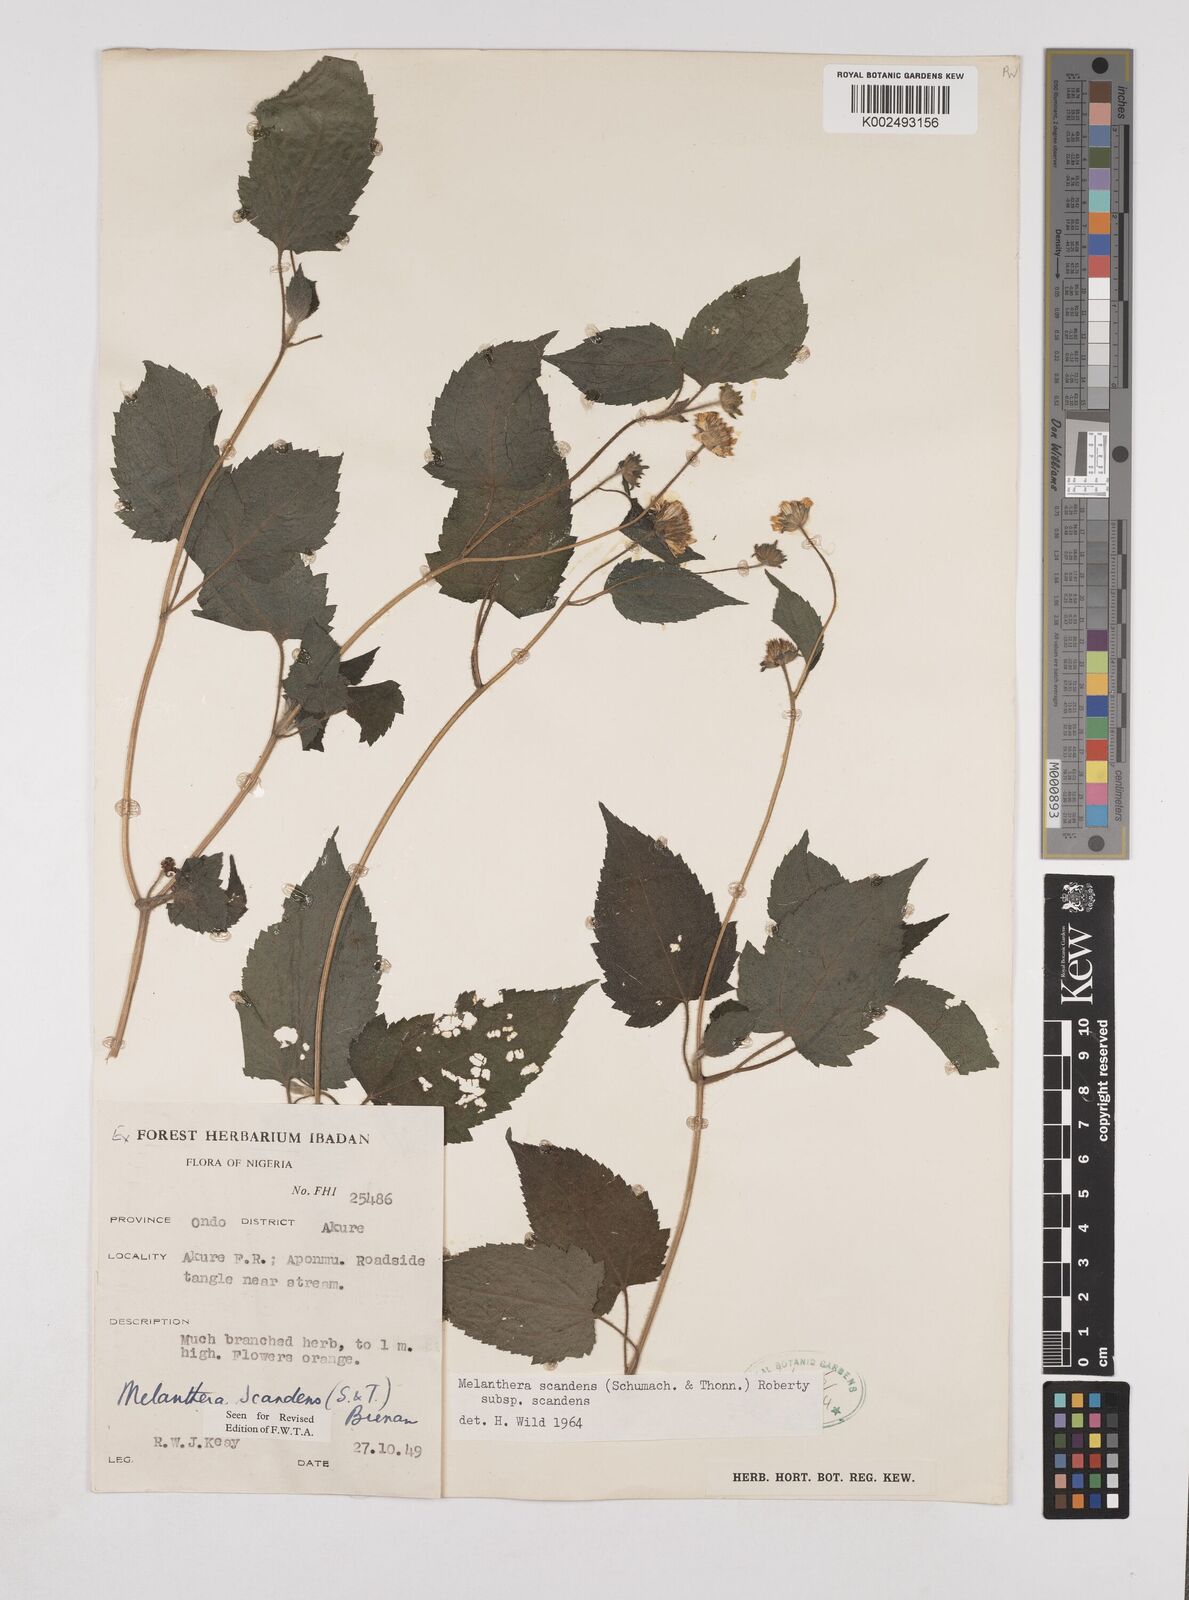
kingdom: Plantae
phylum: Tracheophyta
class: Magnoliopsida
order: Asterales
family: Asteraceae
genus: Lipotriche
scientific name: Lipotriche scandens
